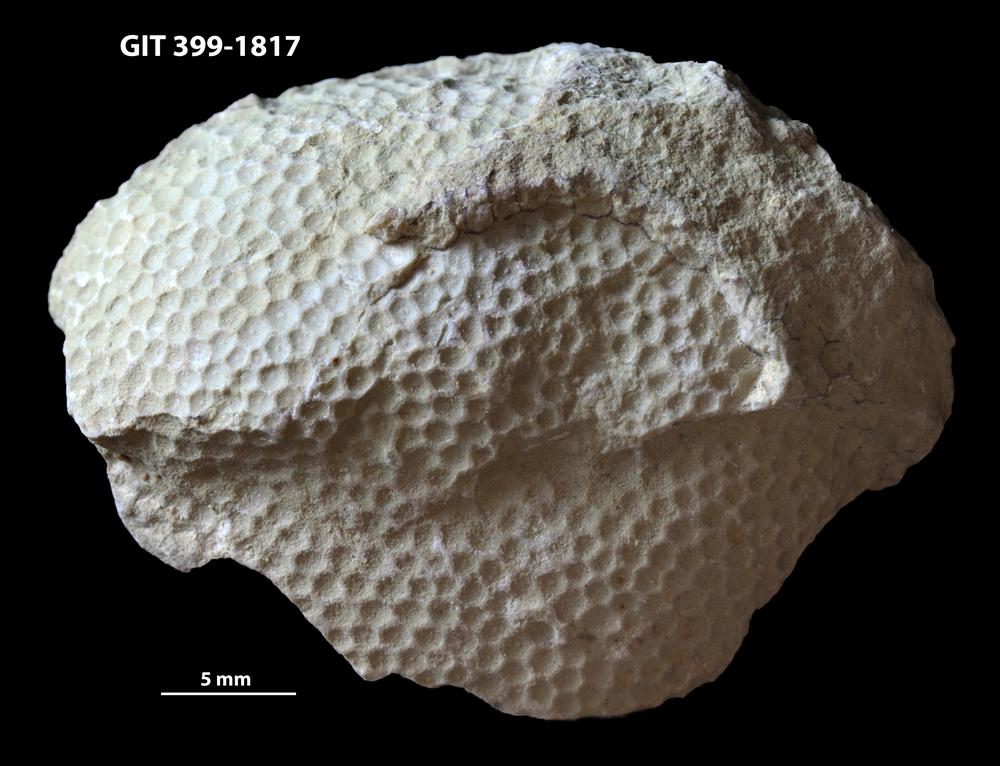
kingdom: Plantae
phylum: Chlorophyta
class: Ulvophyceae
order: Cyclocrinales
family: Cyclocrinaceae
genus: Mastopora
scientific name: Mastopora concava
